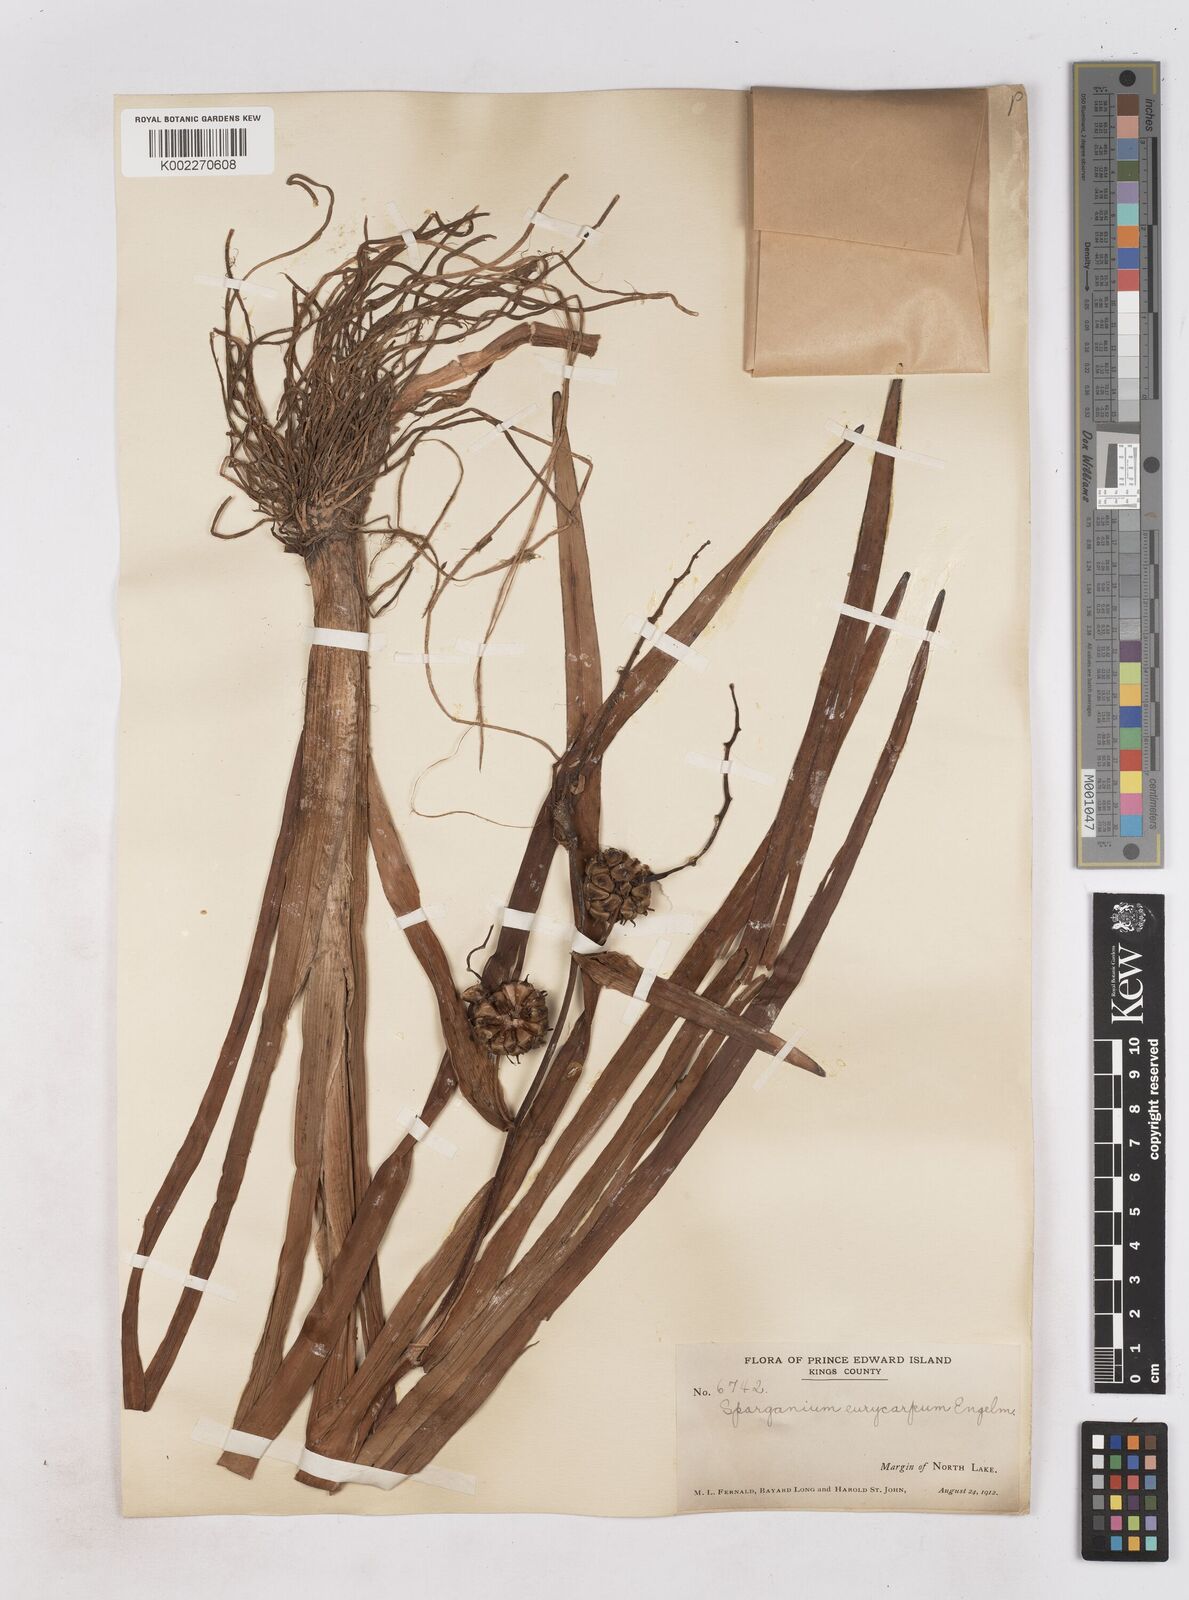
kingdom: Plantae
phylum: Tracheophyta
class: Liliopsida
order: Poales
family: Typhaceae
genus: Sparganium
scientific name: Sparganium eurycarpum
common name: Broad-fruited burreed
